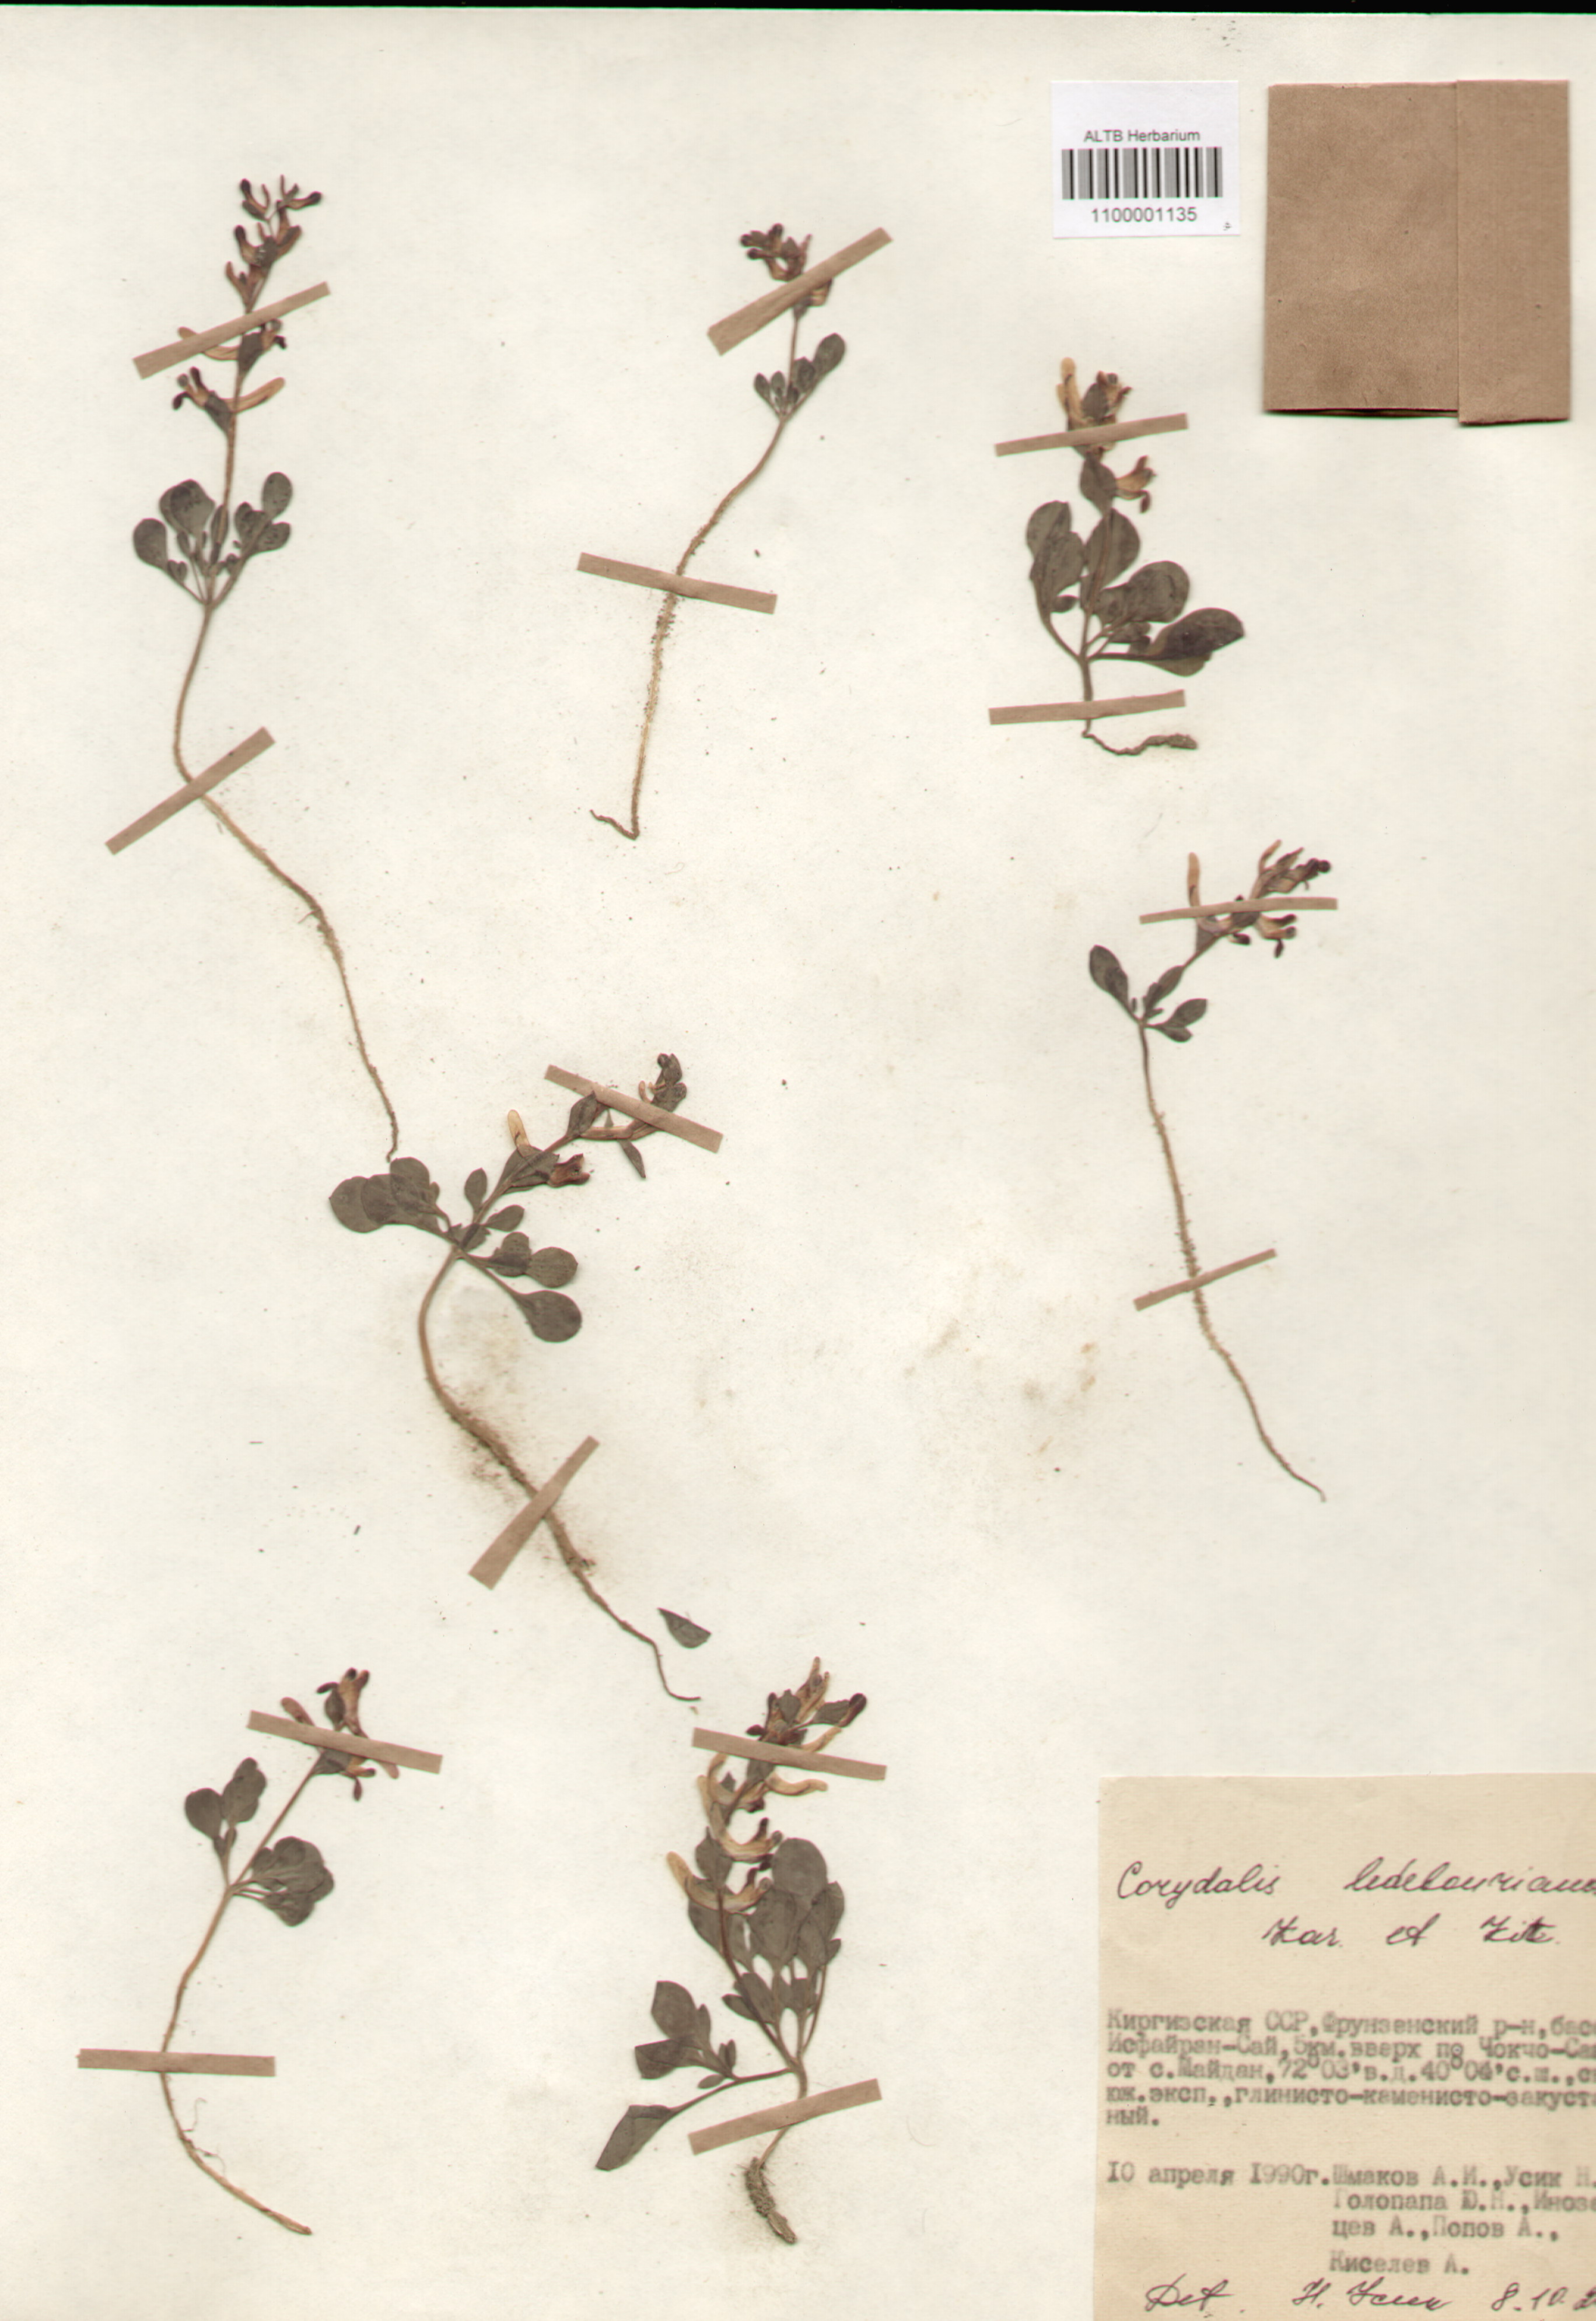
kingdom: Plantae
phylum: Tracheophyta
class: Magnoliopsida
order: Ranunculales
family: Papaveraceae
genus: Corydalis
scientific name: Corydalis ledebouriana
